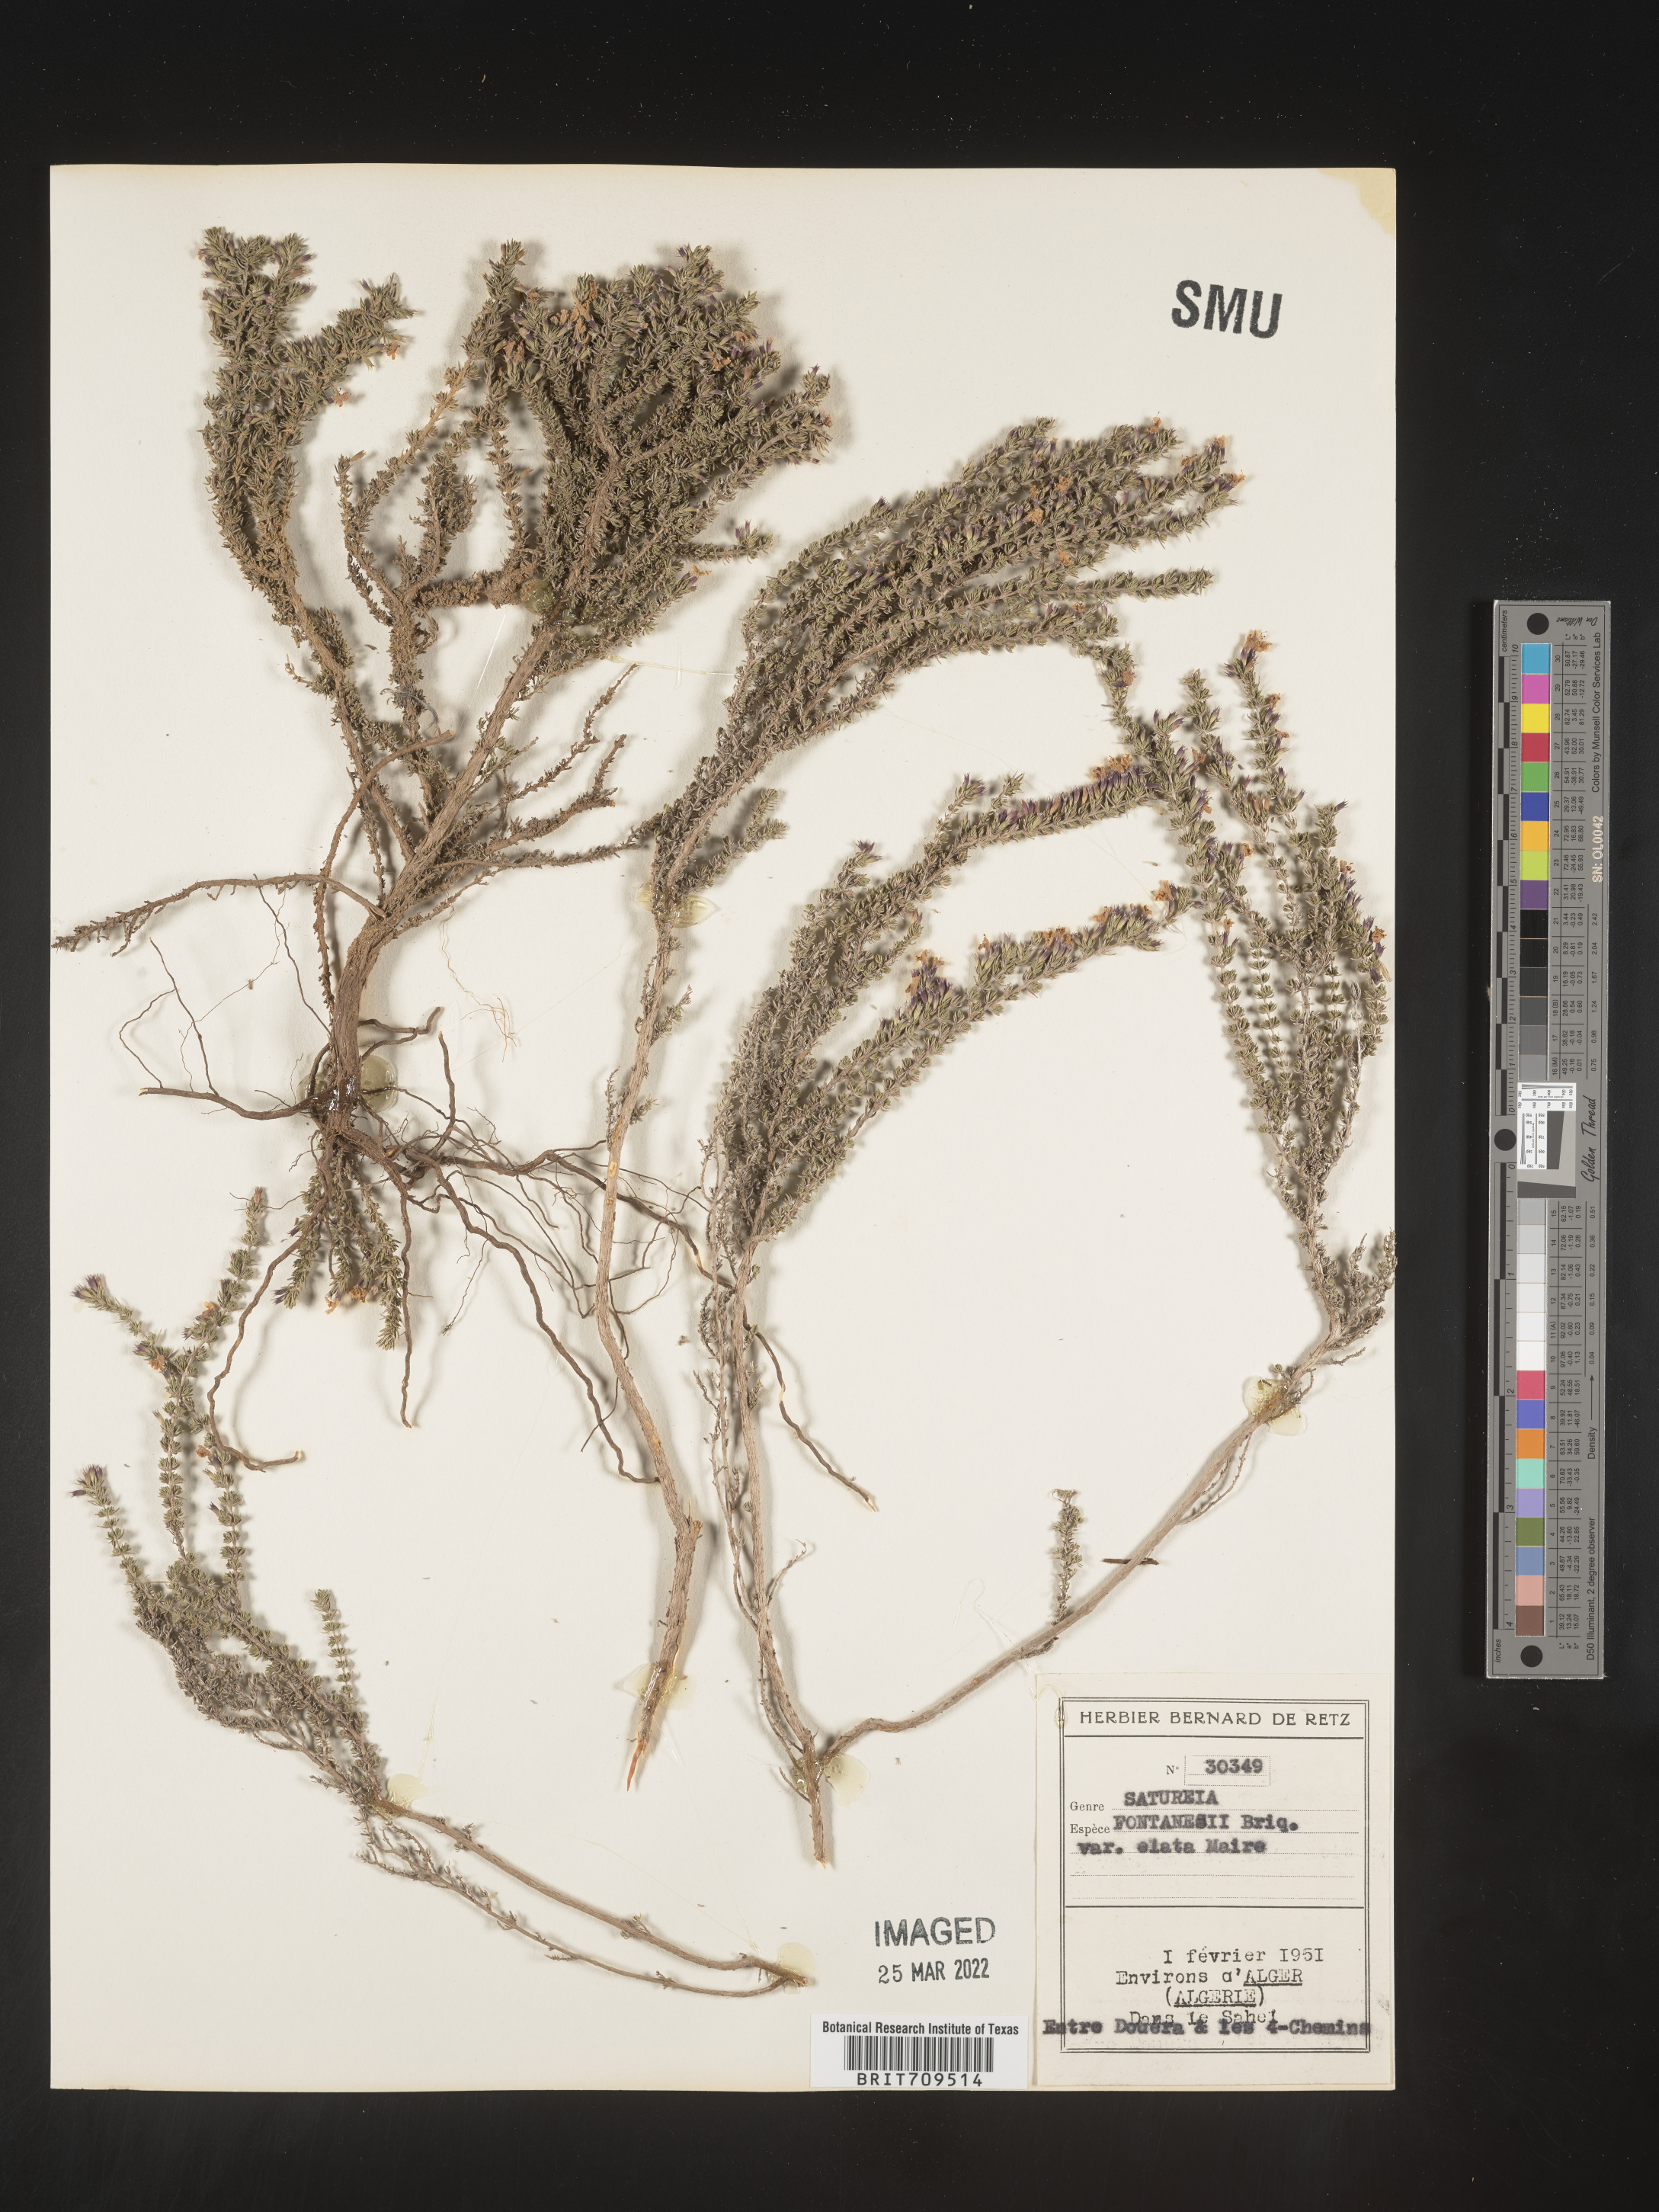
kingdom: Plantae
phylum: Tracheophyta
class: Magnoliopsida
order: Lamiales
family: Lamiaceae
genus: Satureja
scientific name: Satureja
